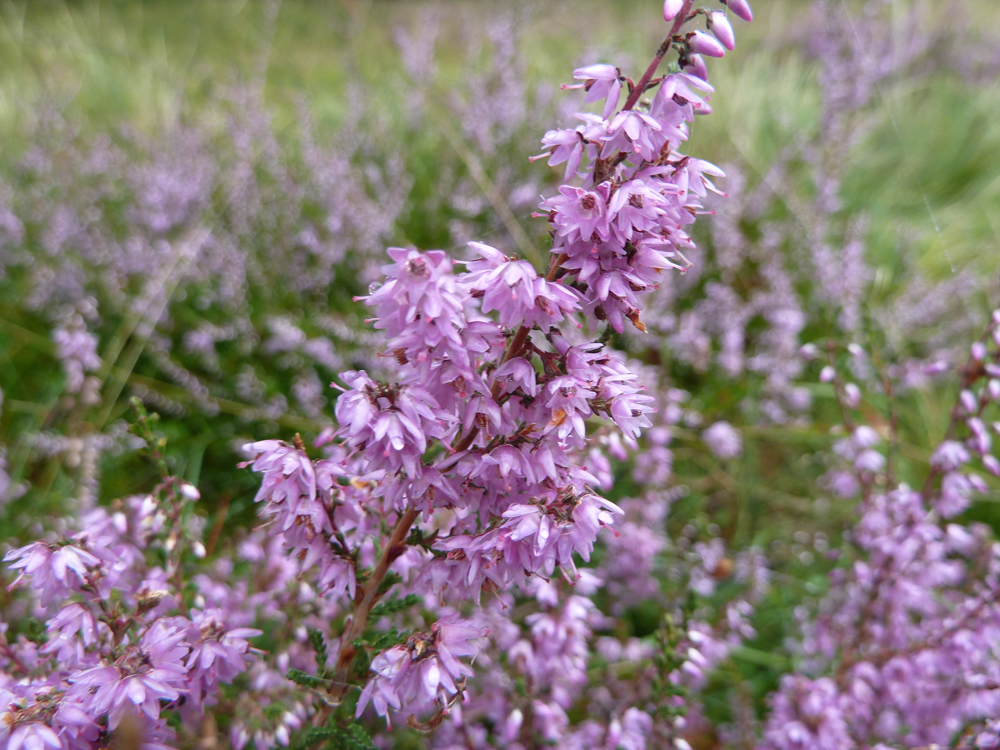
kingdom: Plantae
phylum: Tracheophyta
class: Magnoliopsida
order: Ericales
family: Ericaceae
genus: Calluna
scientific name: Calluna vulgaris
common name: Heather
